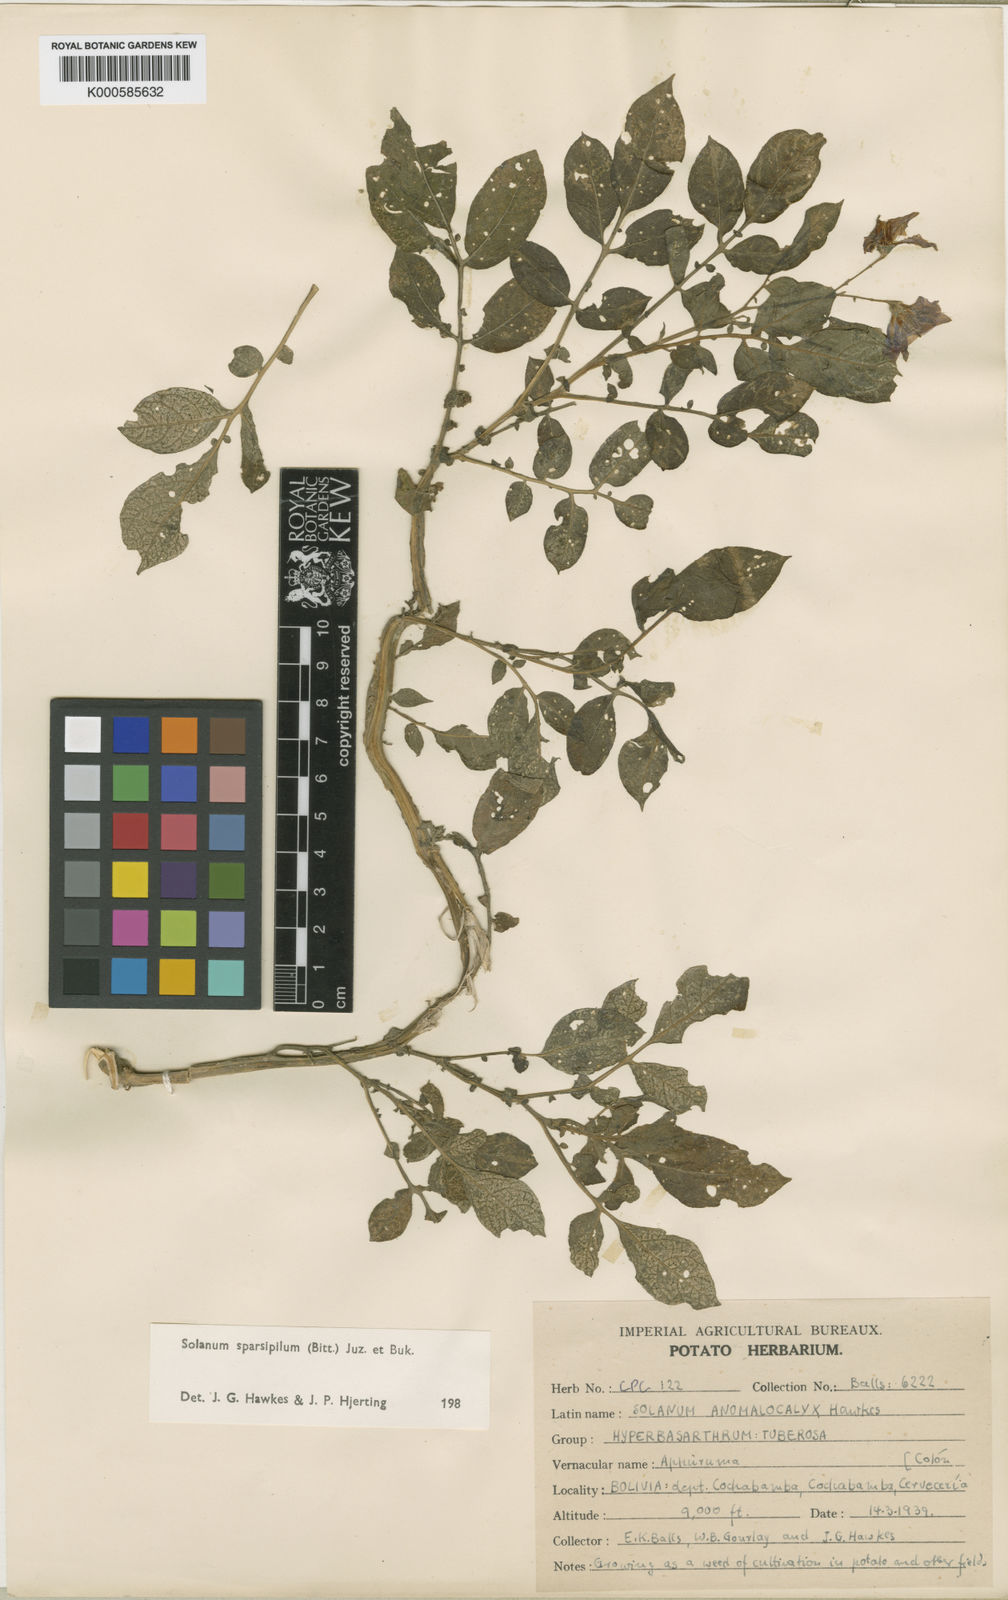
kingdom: Plantae
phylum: Tracheophyta
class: Magnoliopsida
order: Solanales
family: Solanaceae
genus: Solanum
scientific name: Solanum brevicaule
